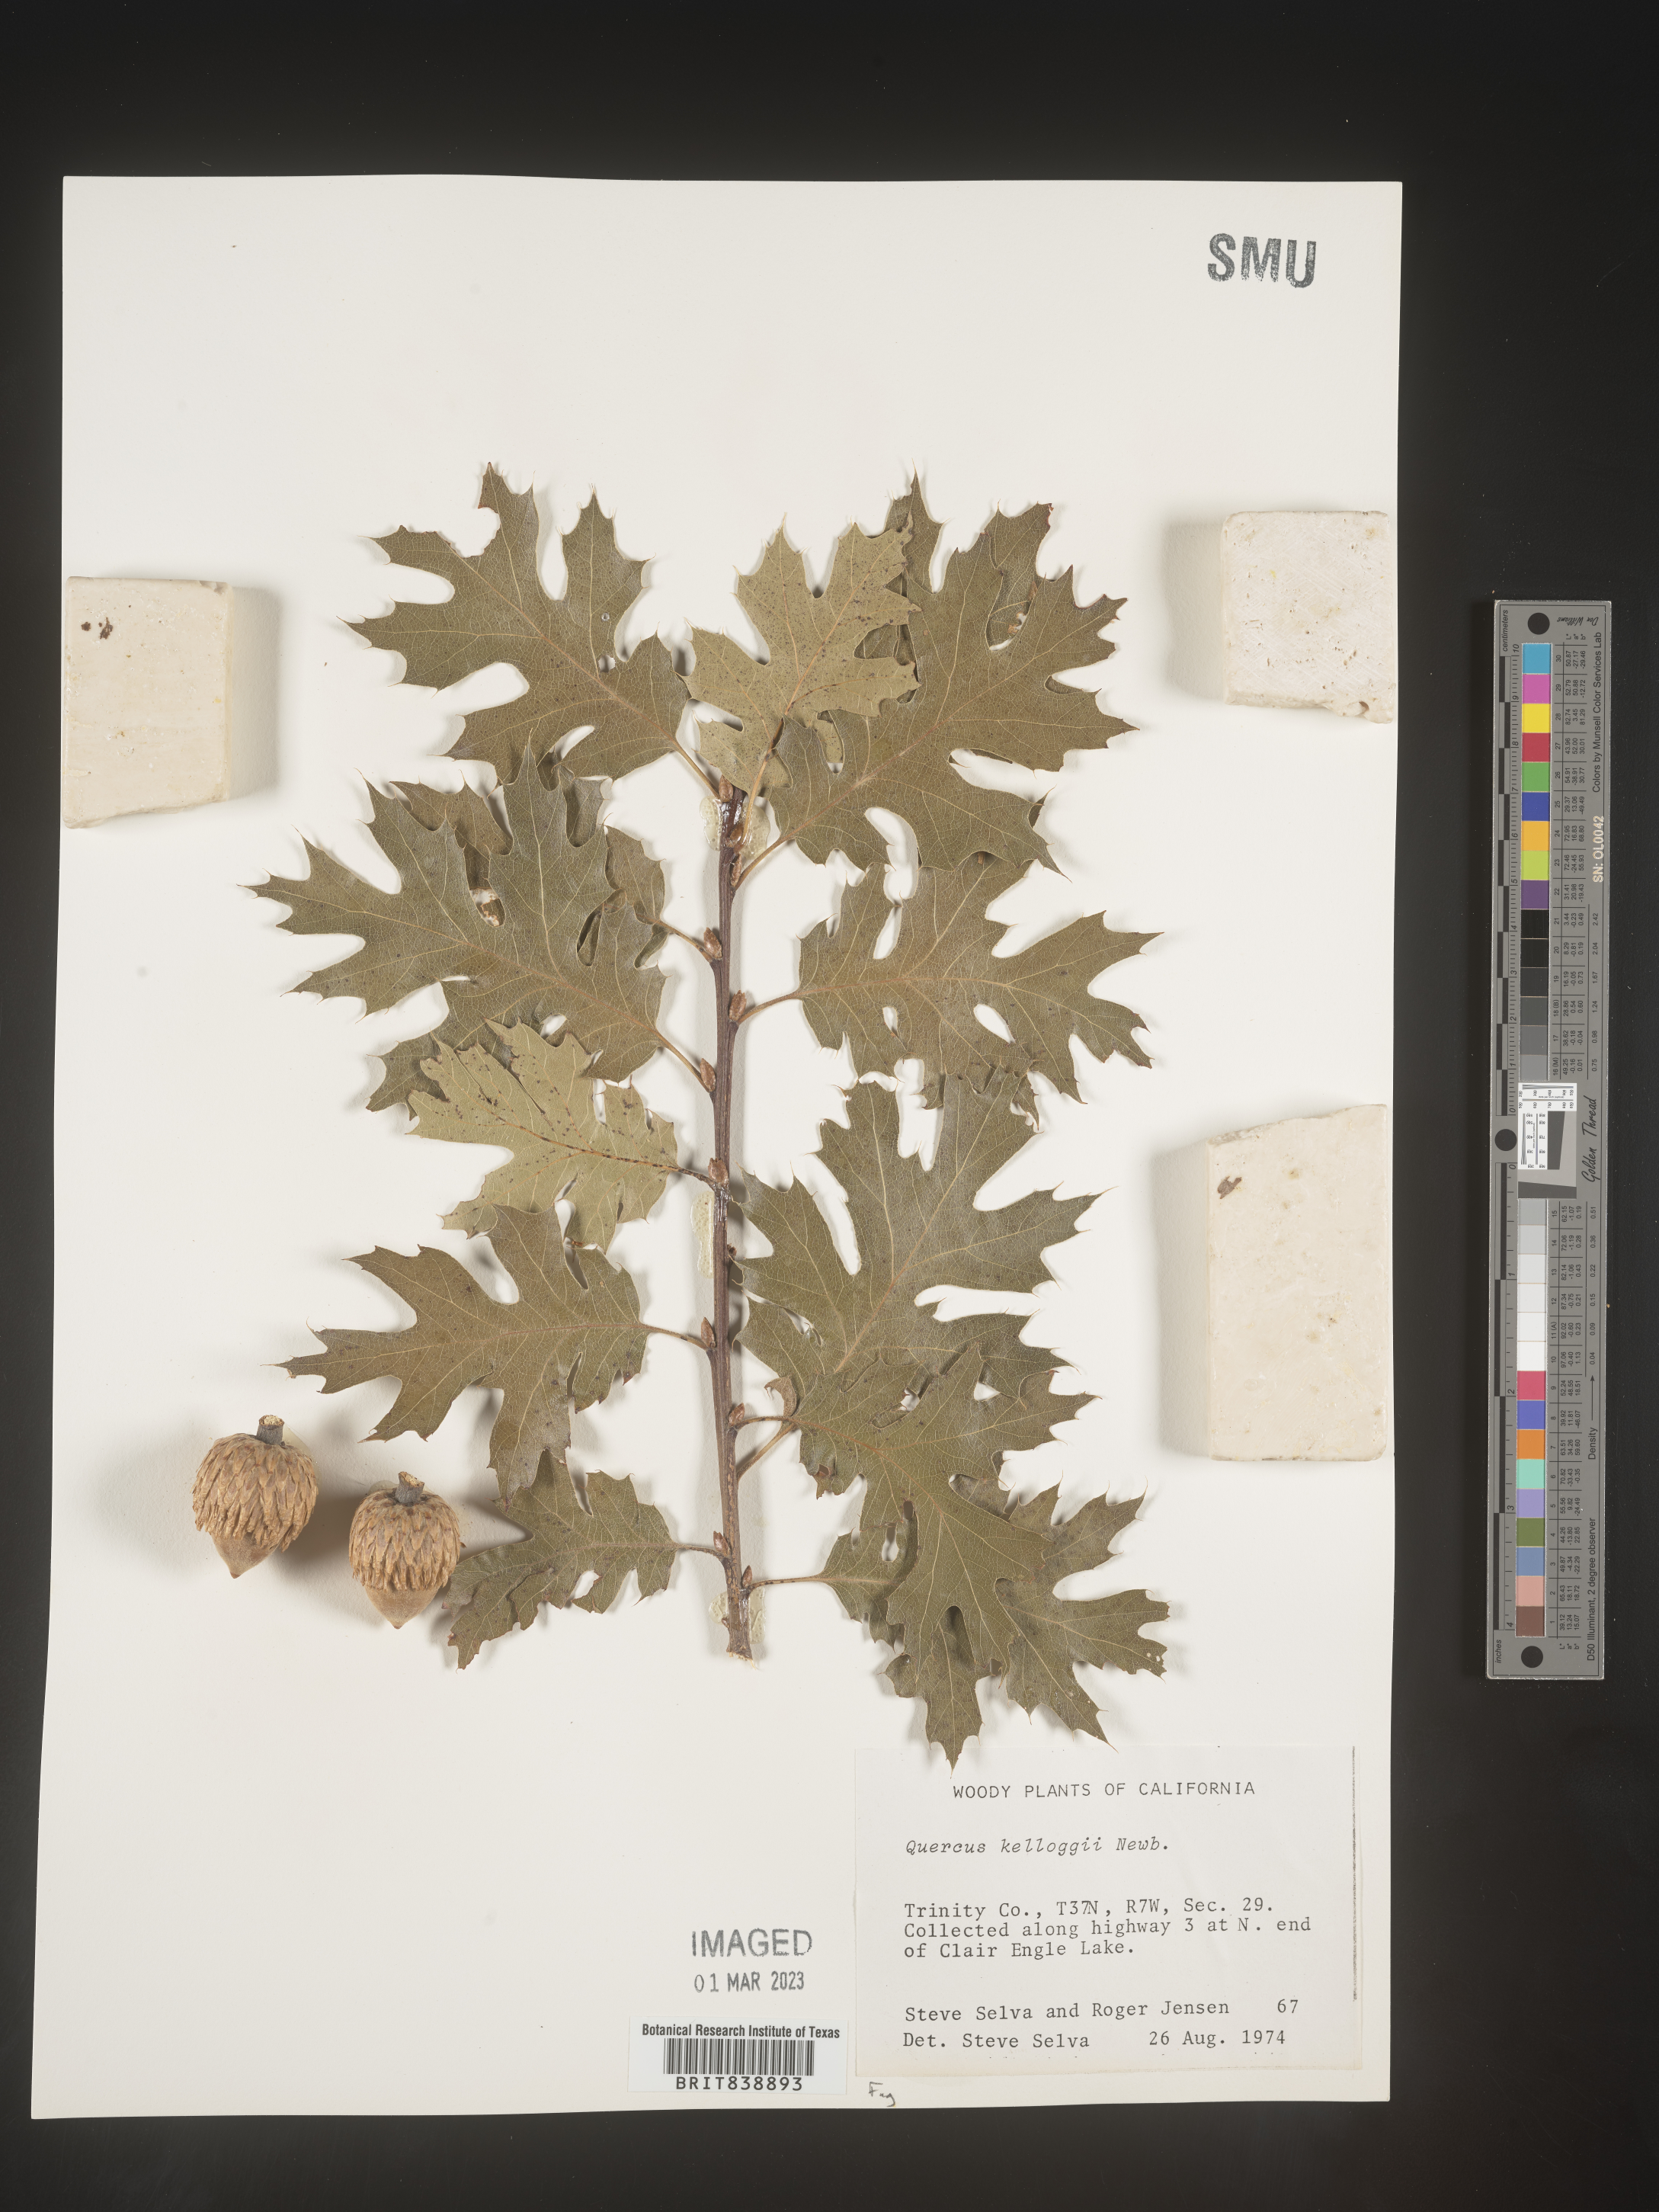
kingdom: Plantae
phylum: Tracheophyta
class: Magnoliopsida
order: Fagales
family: Fagaceae
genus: Quercus
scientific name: Quercus kelloggii
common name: California black oak
